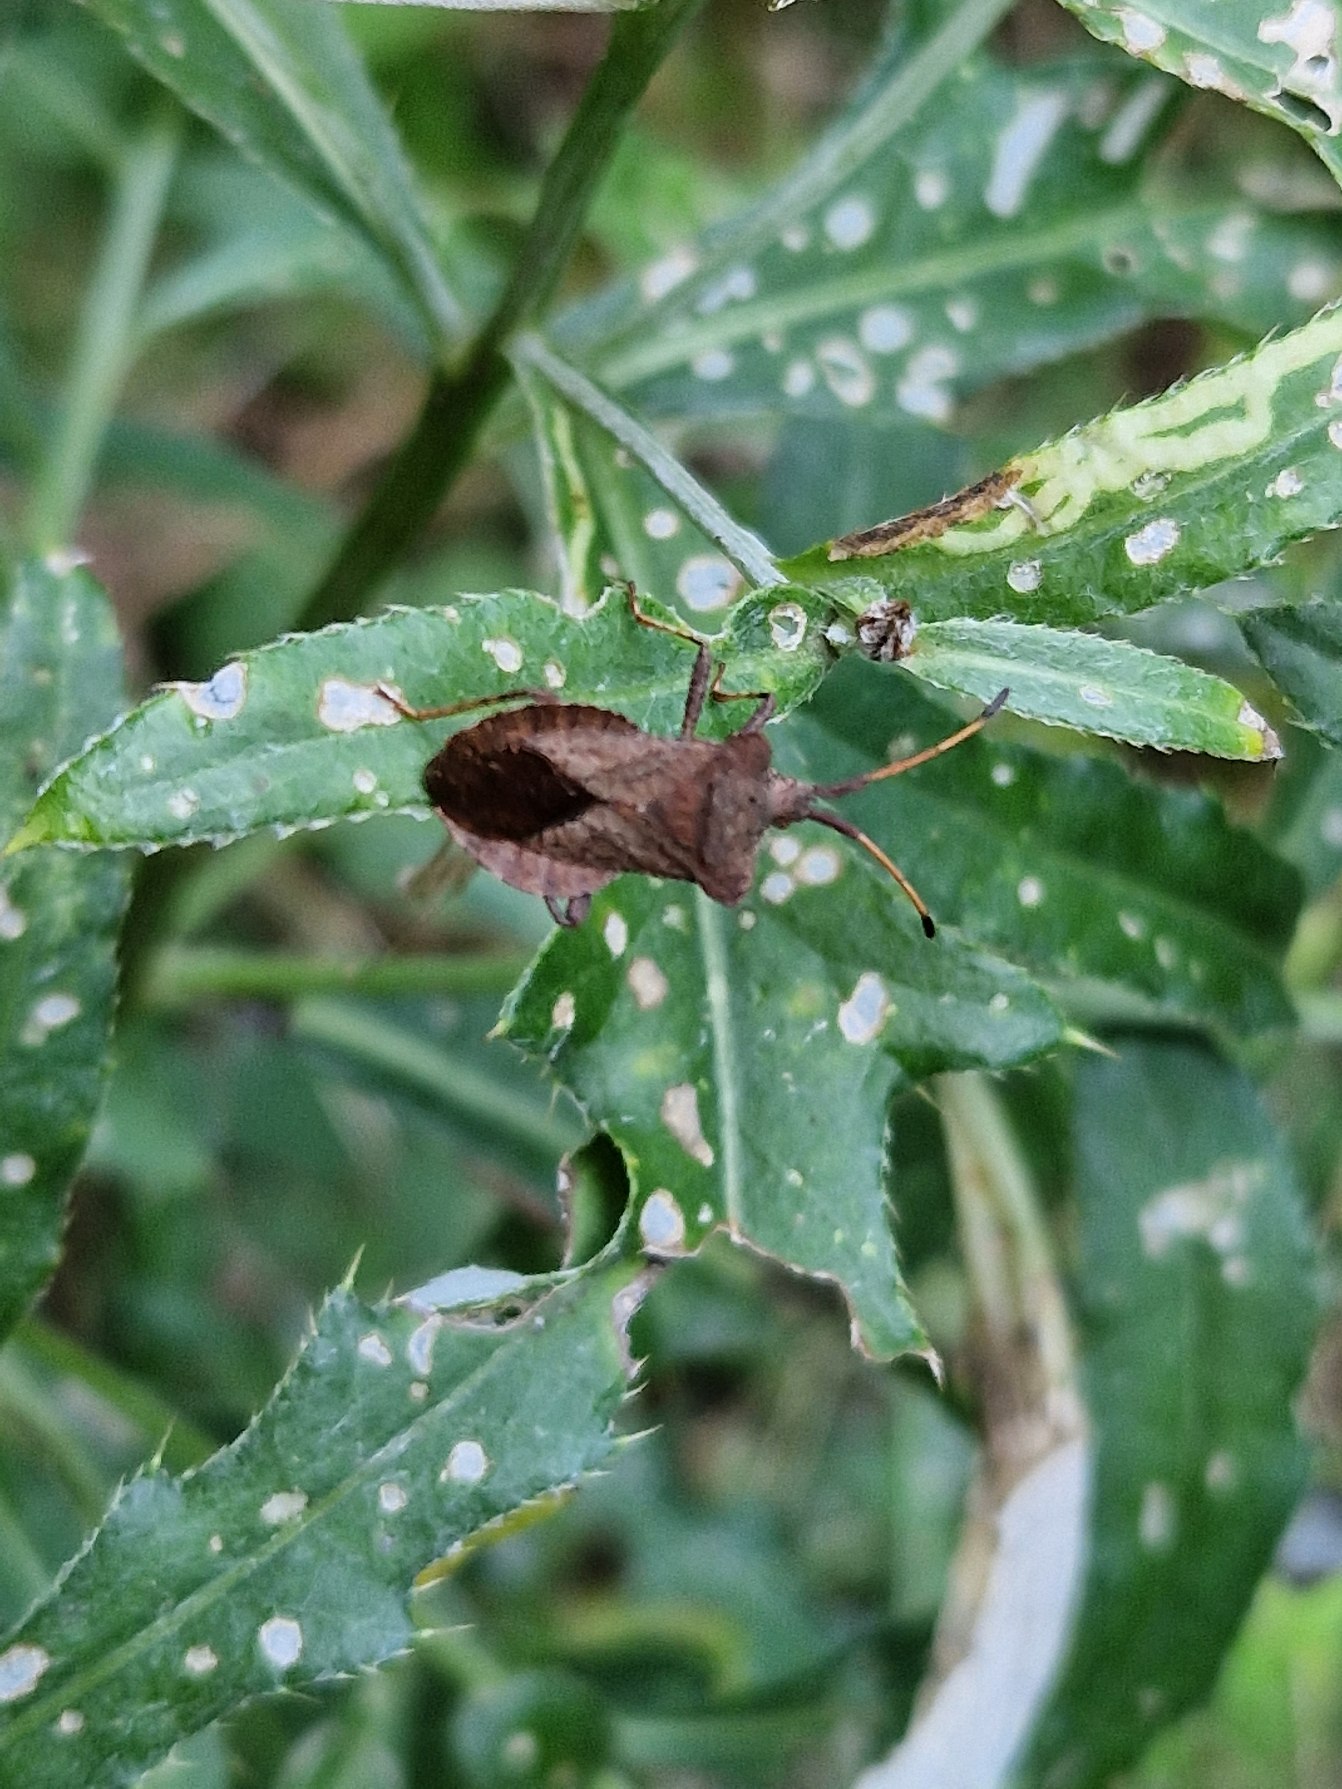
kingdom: Animalia
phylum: Arthropoda
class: Insecta
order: Hemiptera
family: Coreidae
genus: Coreus
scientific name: Coreus marginatus
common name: Skræppetæge
